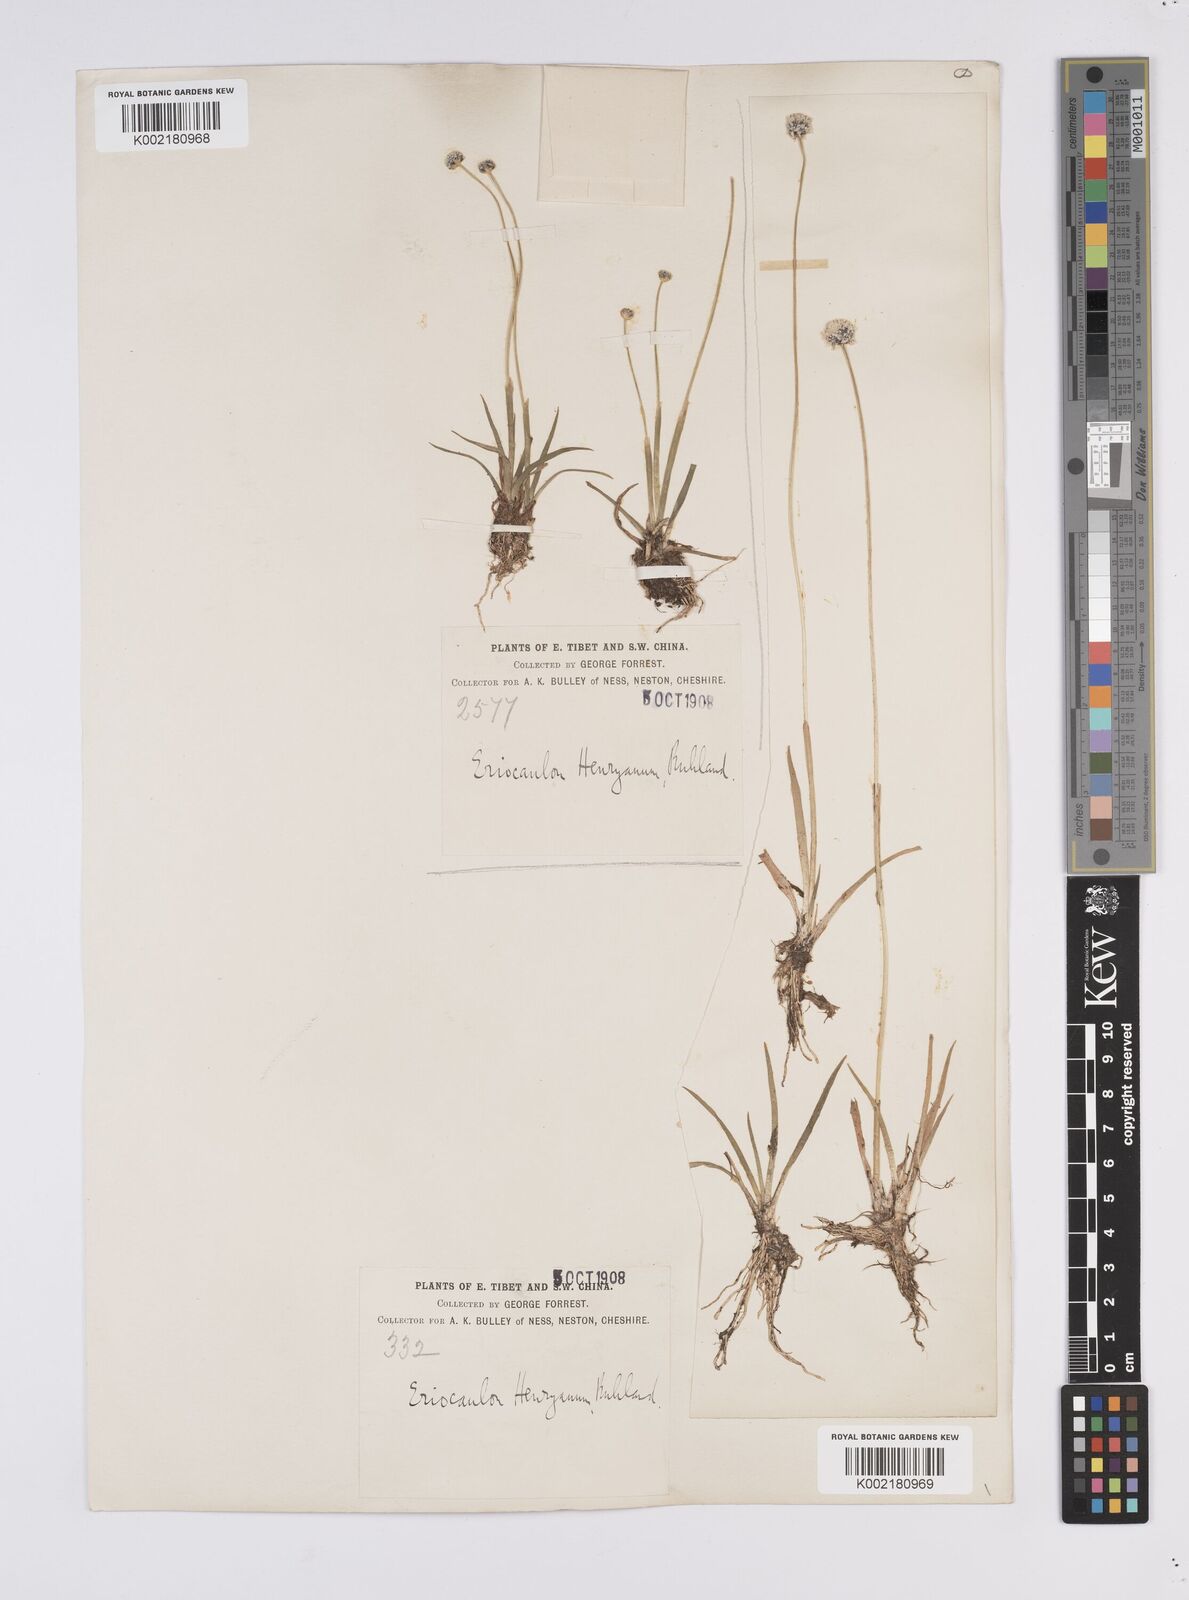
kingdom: Plantae
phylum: Tracheophyta
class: Liliopsida
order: Poales
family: Eriocaulaceae
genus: Eriocaulon
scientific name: Eriocaulon henryanum
